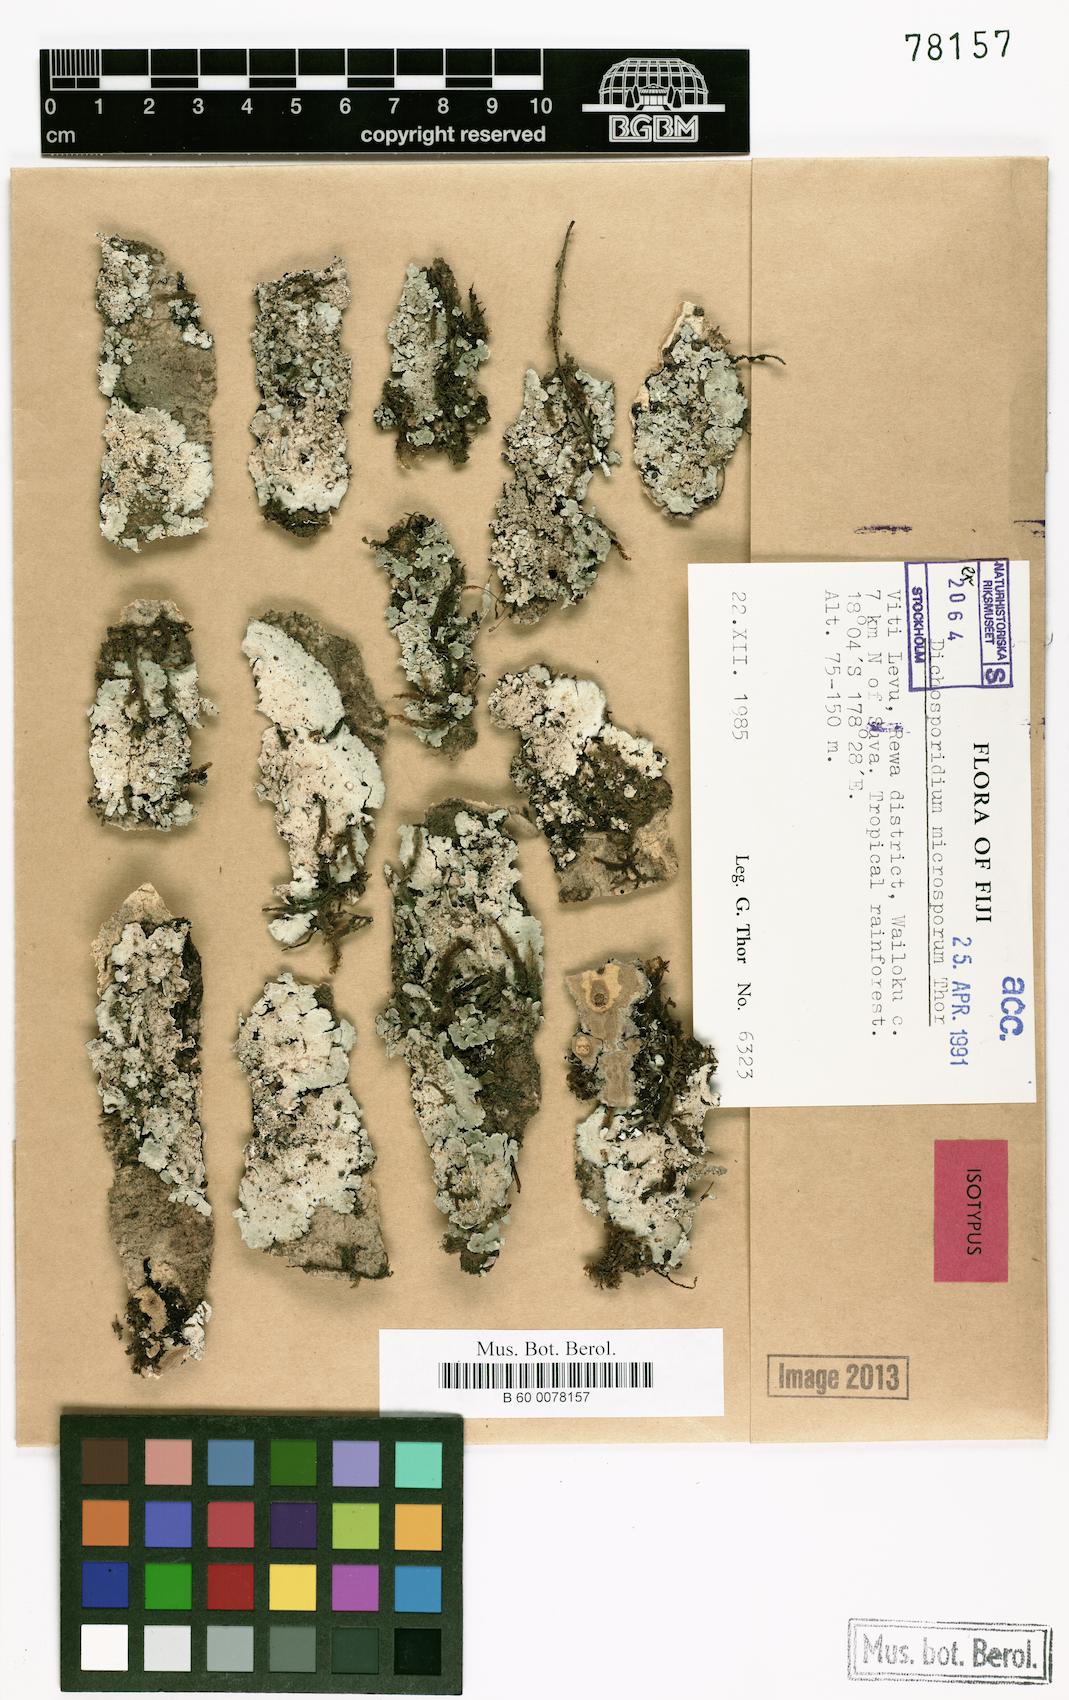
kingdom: Fungi
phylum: Ascomycota
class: Arthoniomycetes
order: Arthoniales
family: Roccellaceae
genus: Dichosporidium
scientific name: Dichosporidium microsporum
